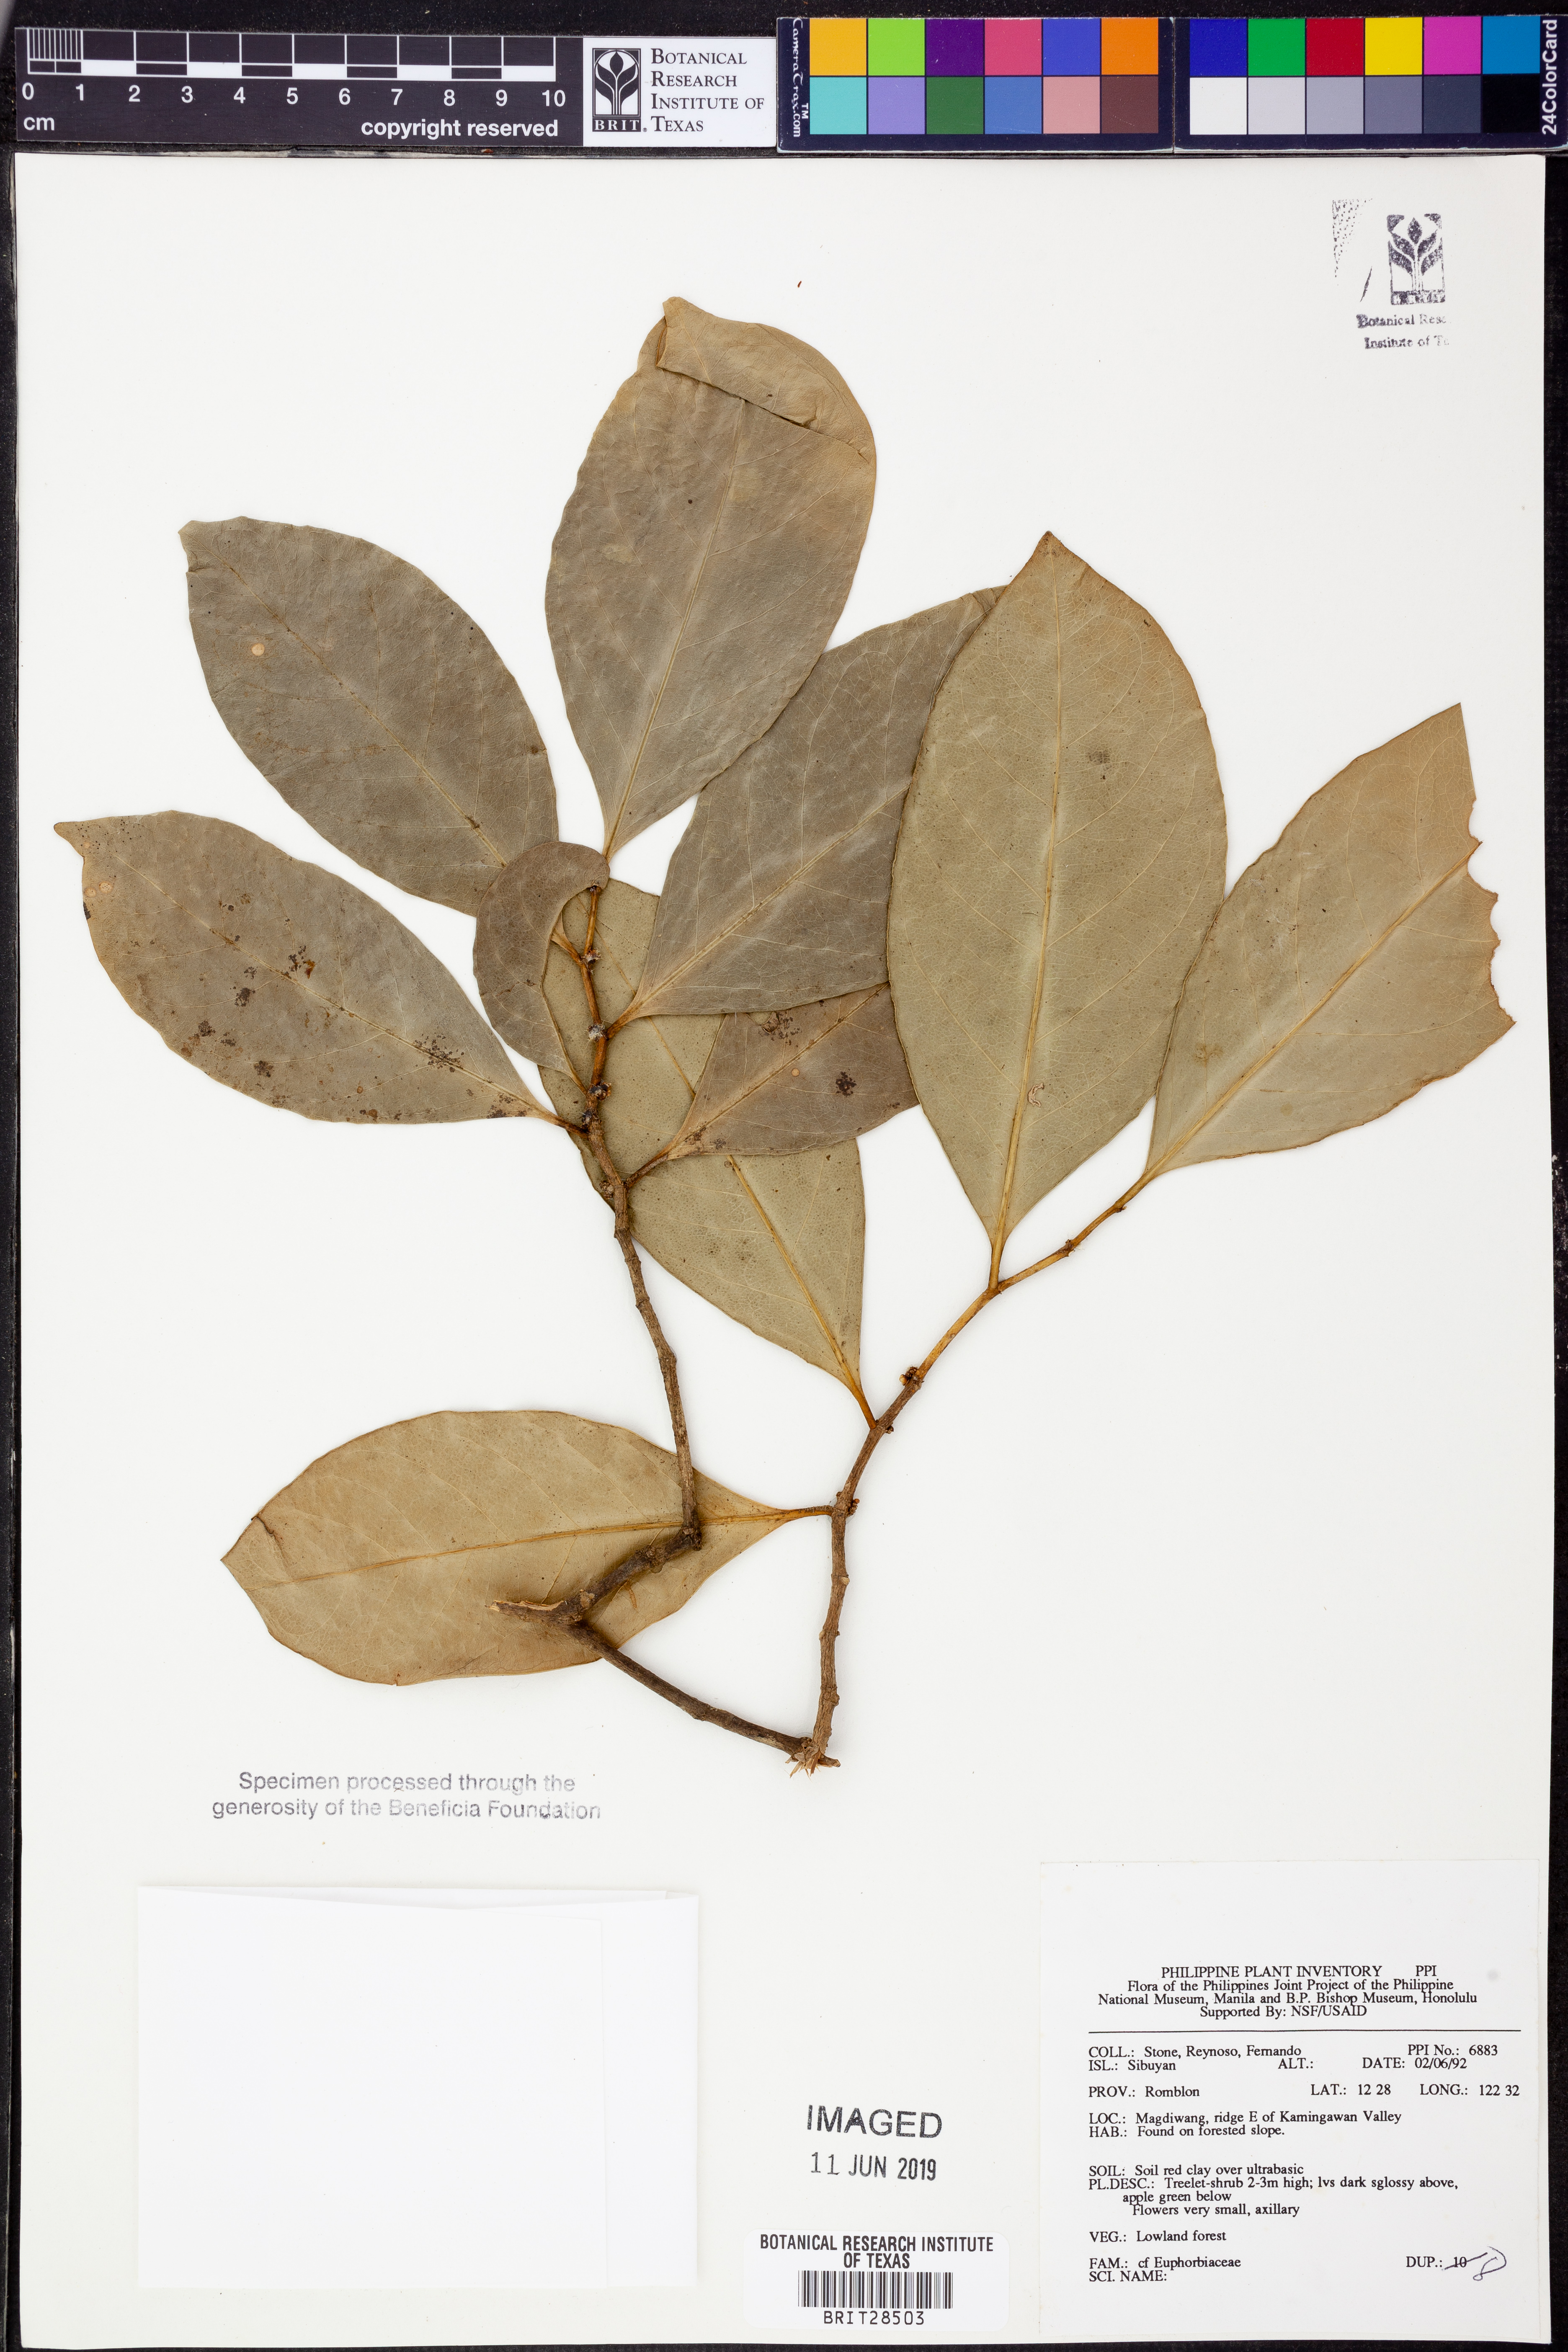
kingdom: Plantae
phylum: Tracheophyta
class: Magnoliopsida
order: Malpighiales
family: Euphorbiaceae
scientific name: Euphorbiaceae
